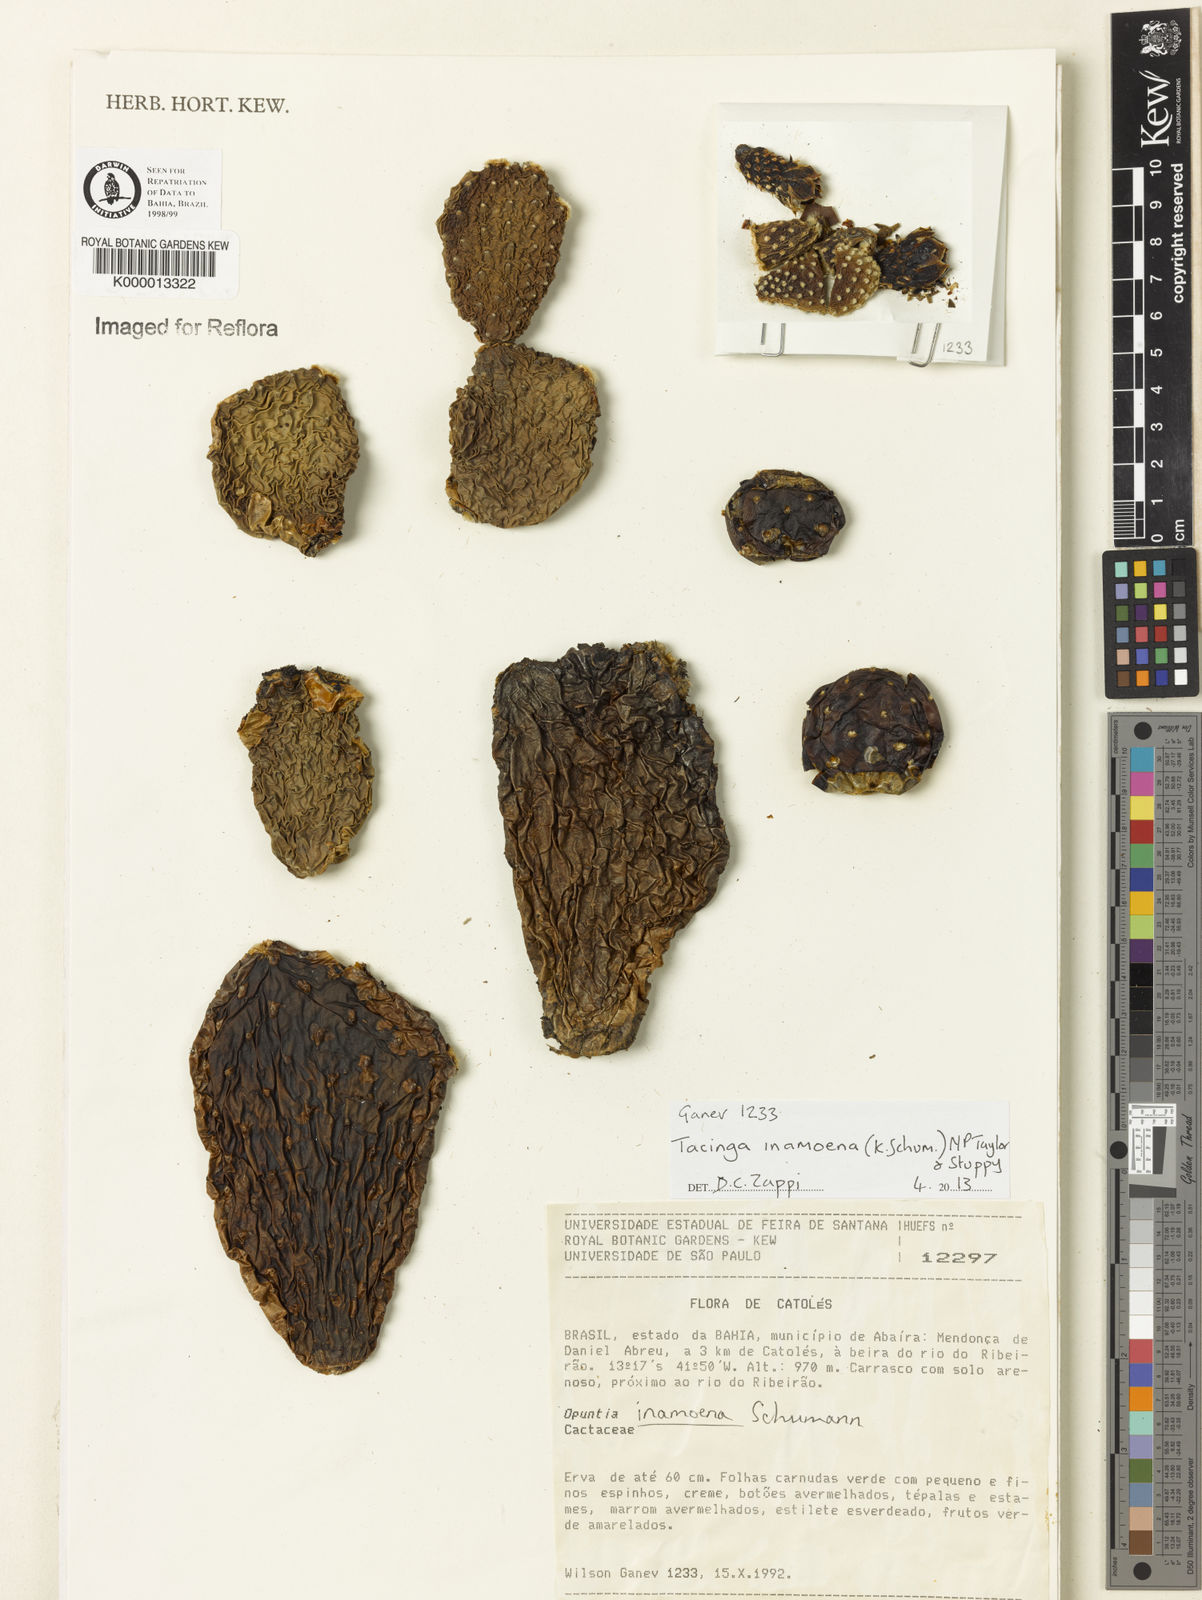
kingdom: Plantae
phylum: Tracheophyta
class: Magnoliopsida
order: Caryophyllales
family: Cactaceae
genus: Tacinga
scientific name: Tacinga inamoena
